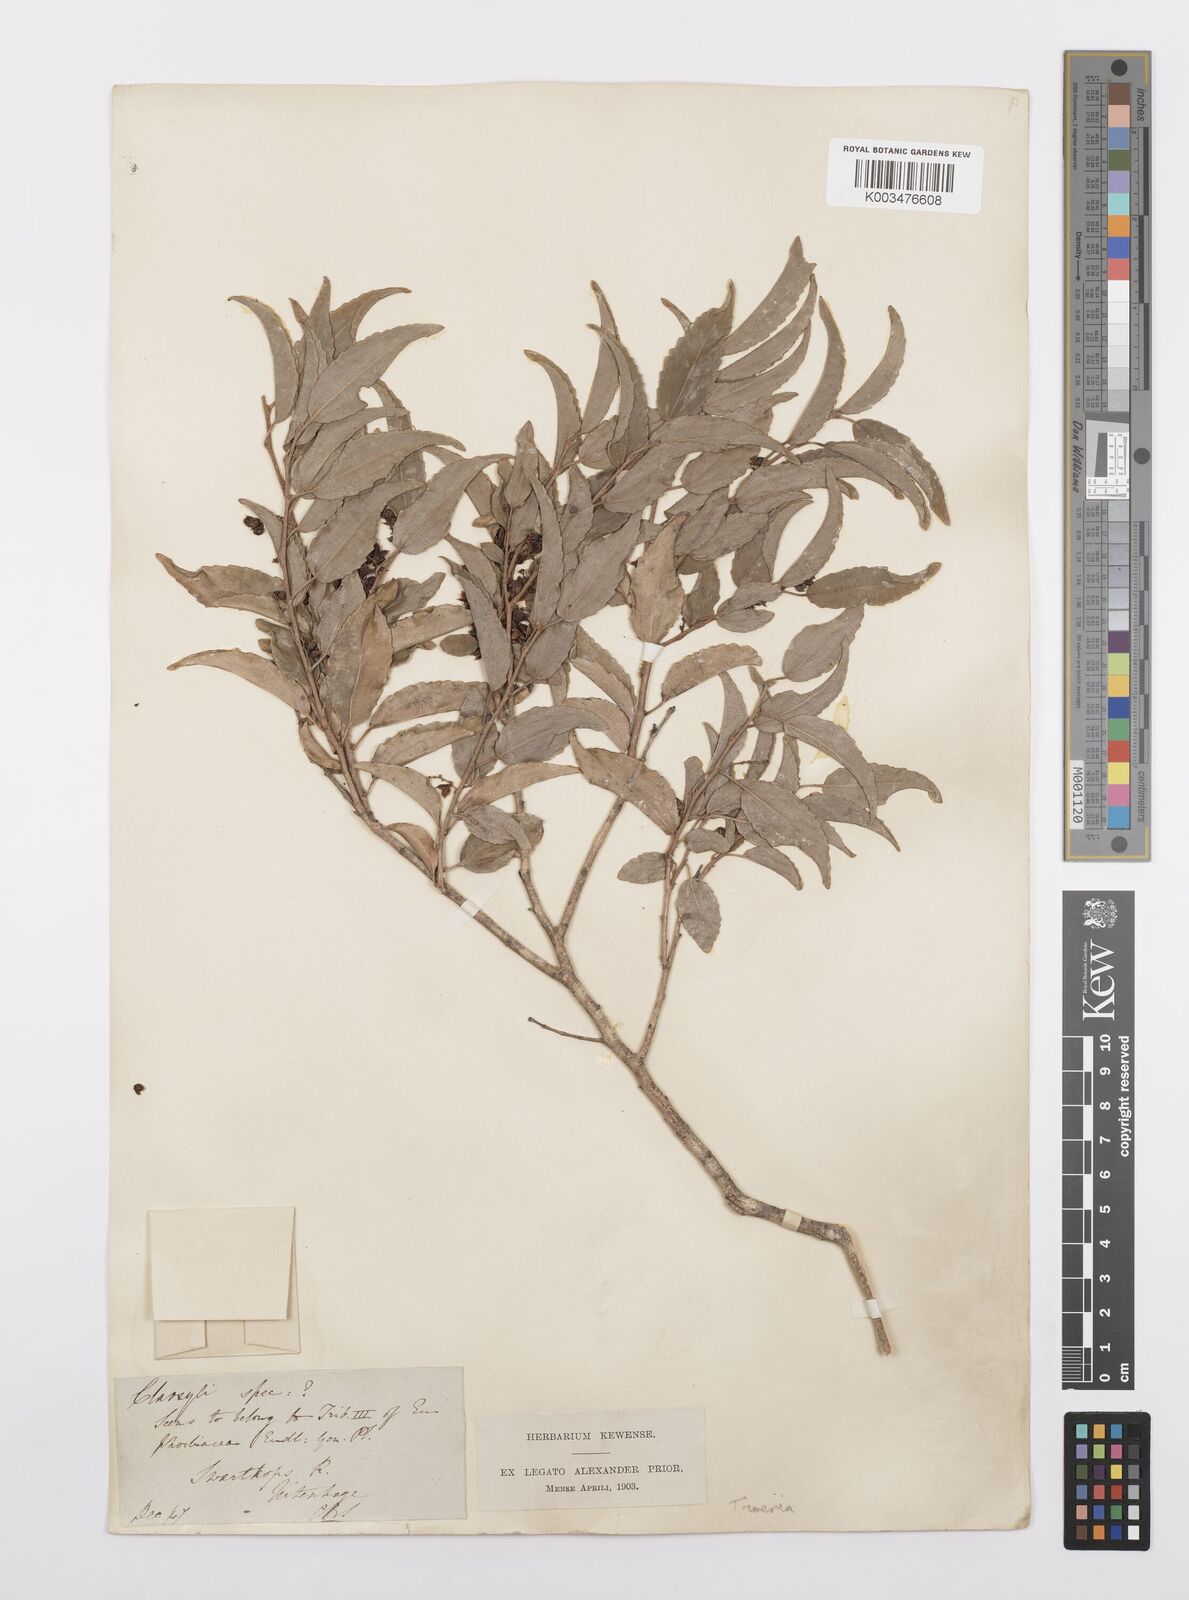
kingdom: Plantae
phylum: Tracheophyta
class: Magnoliopsida
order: Malpighiales
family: Salicaceae
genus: Trimeria
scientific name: Trimeria trinervis
